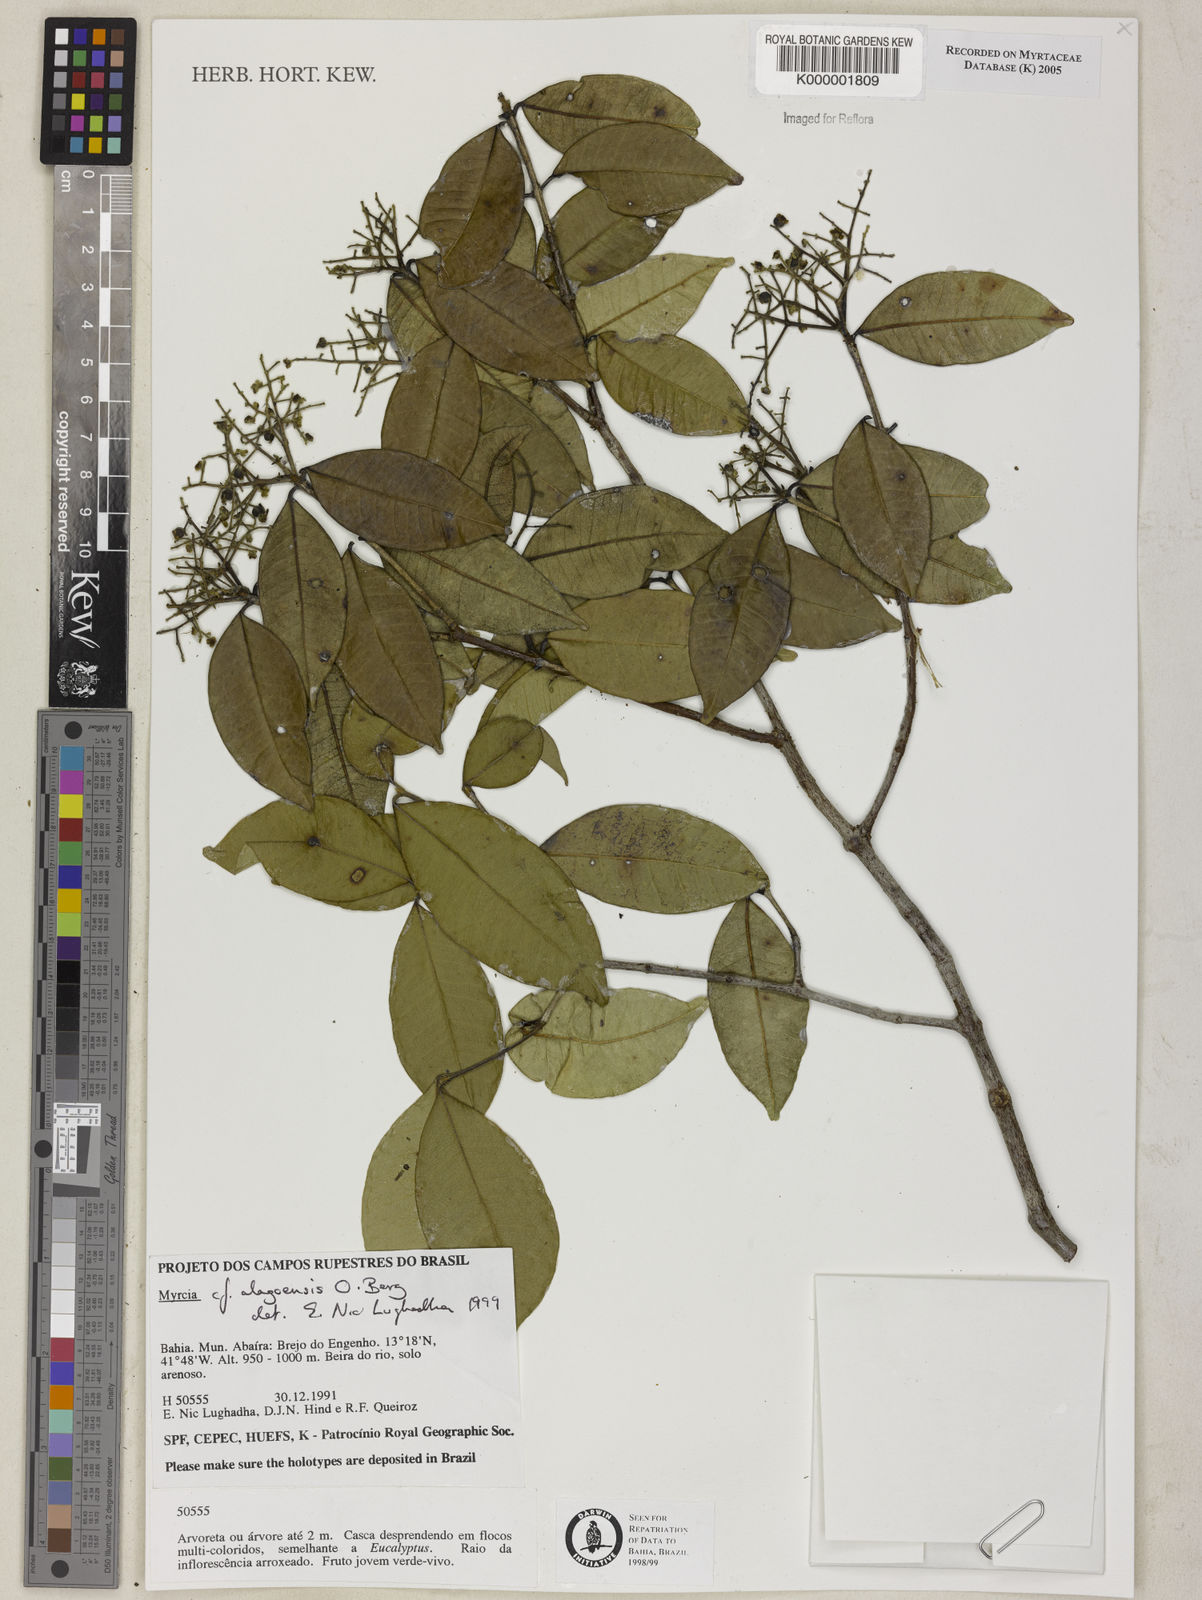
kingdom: Plantae
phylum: Tracheophyta
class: Magnoliopsida
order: Myrtales
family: Myrtaceae
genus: Myrcia
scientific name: Myrcia splendens
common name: Surinam cherry
